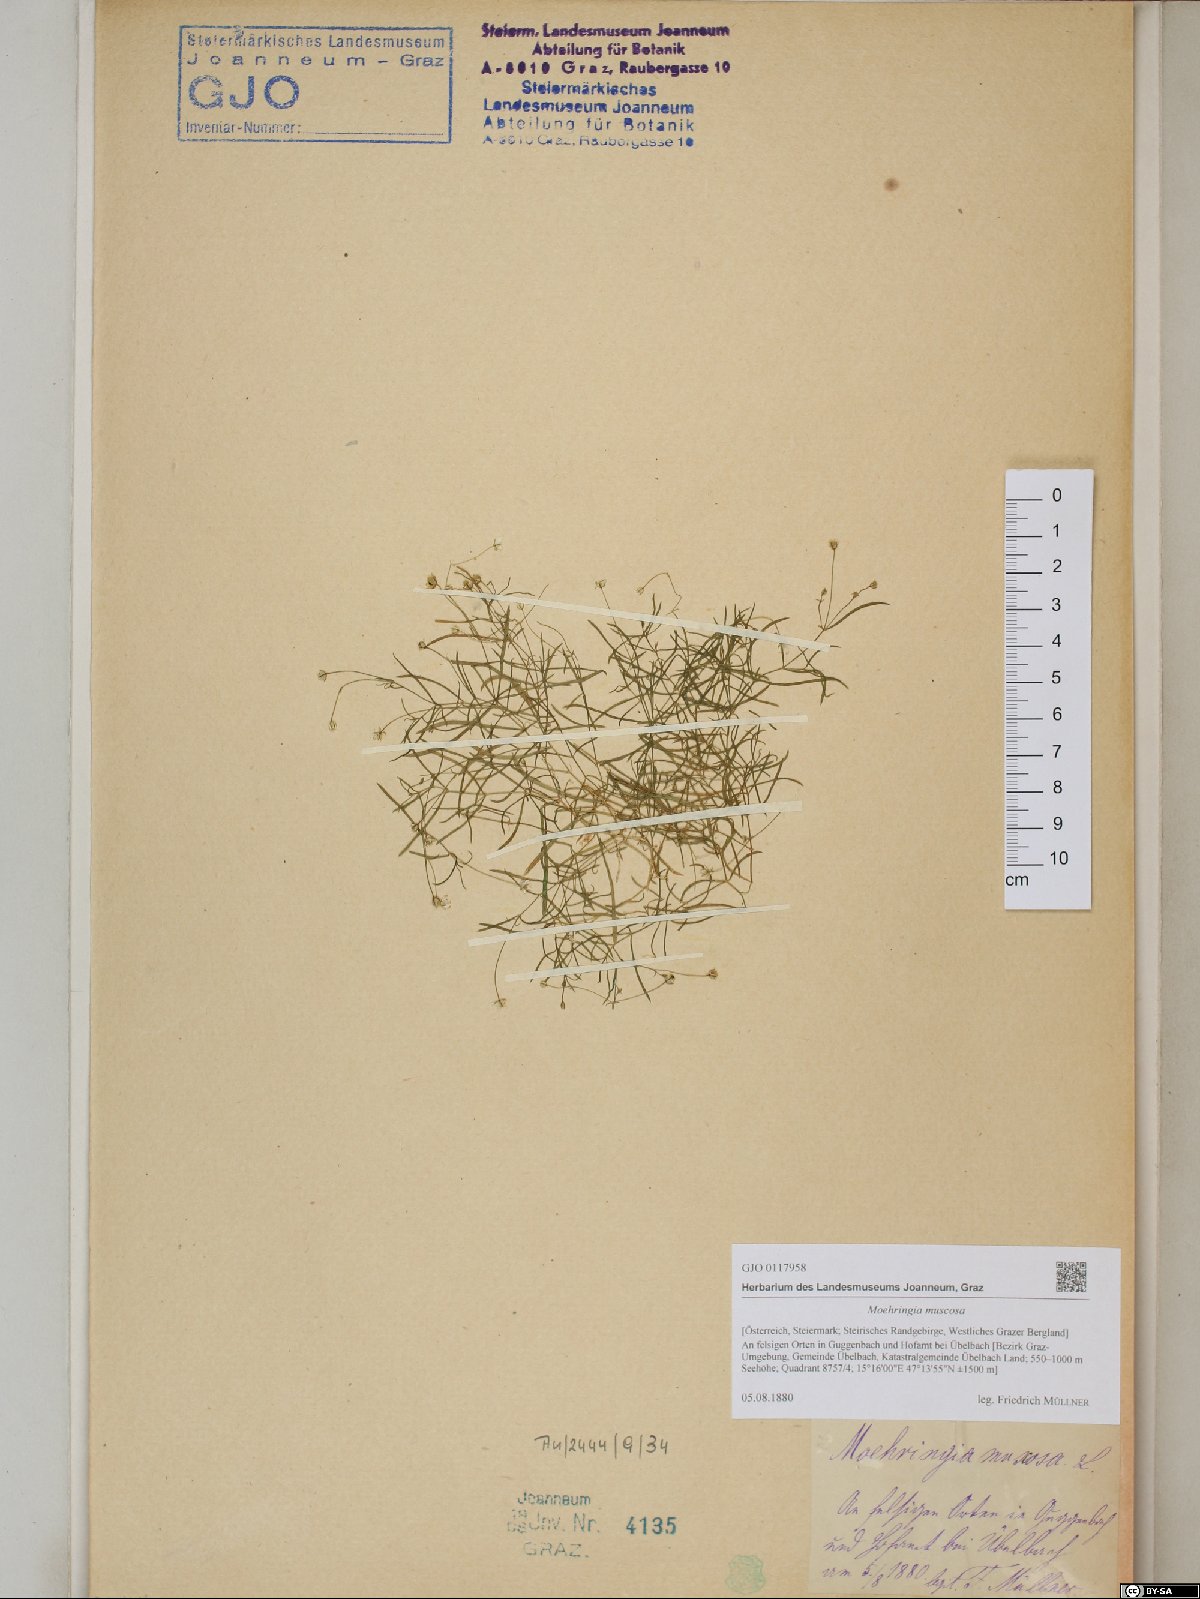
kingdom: Plantae
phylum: Tracheophyta
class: Magnoliopsida
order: Caryophyllales
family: Caryophyllaceae
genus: Moehringia
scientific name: Moehringia muscosa
